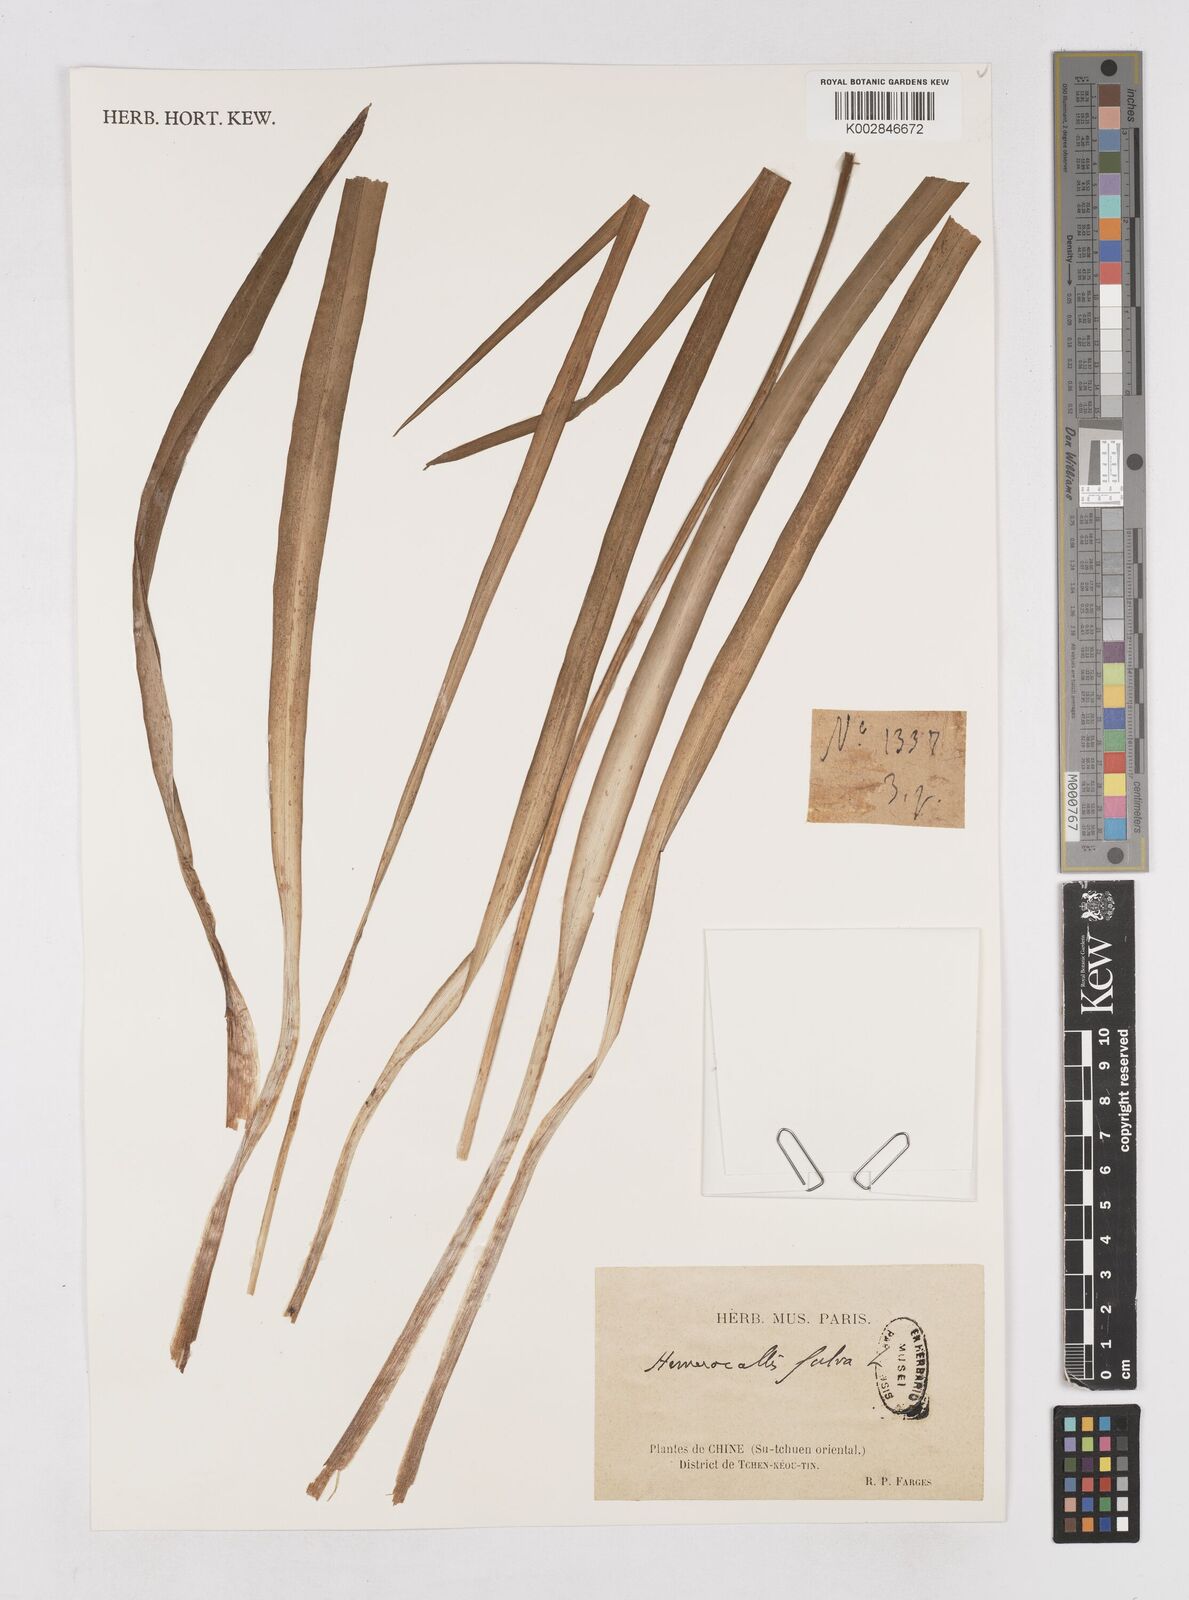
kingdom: Plantae
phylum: Tracheophyta
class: Liliopsida
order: Asparagales
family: Asphodelaceae
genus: Hemerocallis
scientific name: Hemerocallis fulva
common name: Orange day-lily
